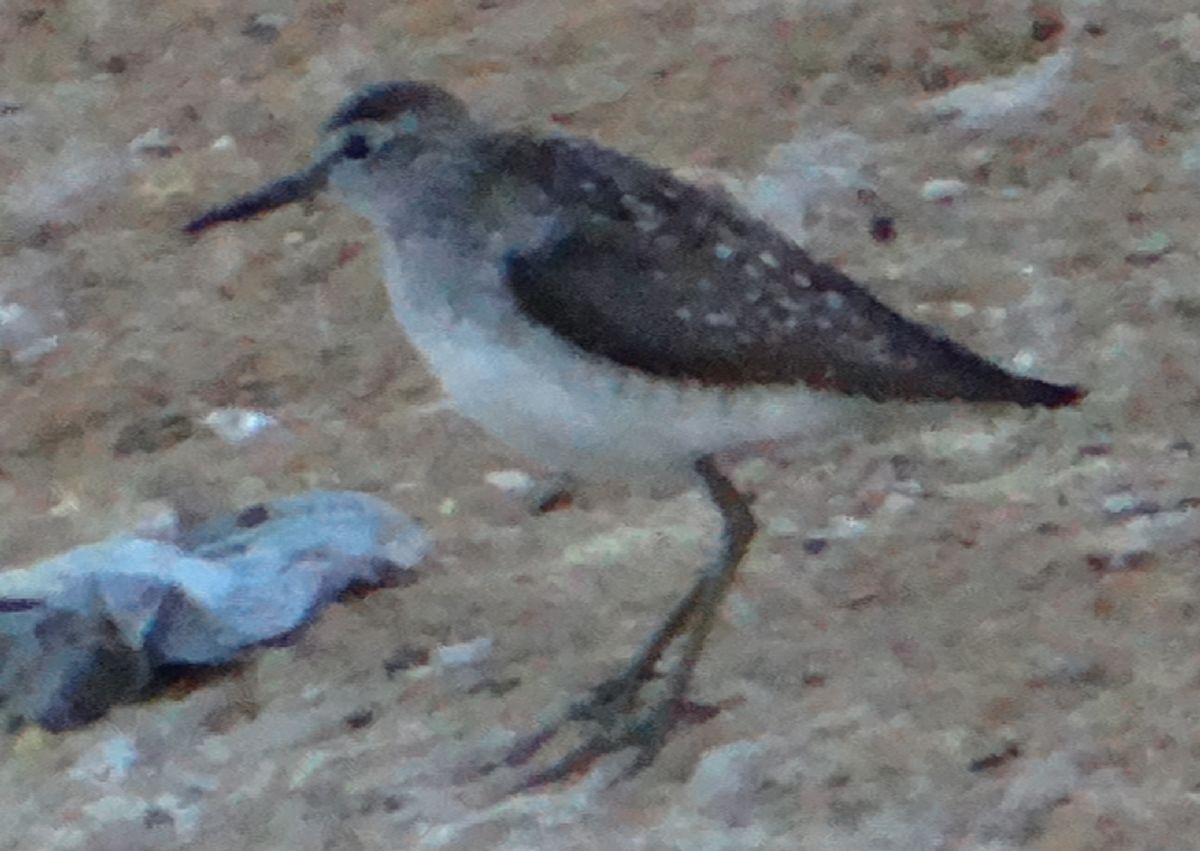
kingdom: Animalia
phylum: Chordata
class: Aves
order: Charadriiformes
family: Scolopacidae
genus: Tringa
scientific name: Tringa glareola
